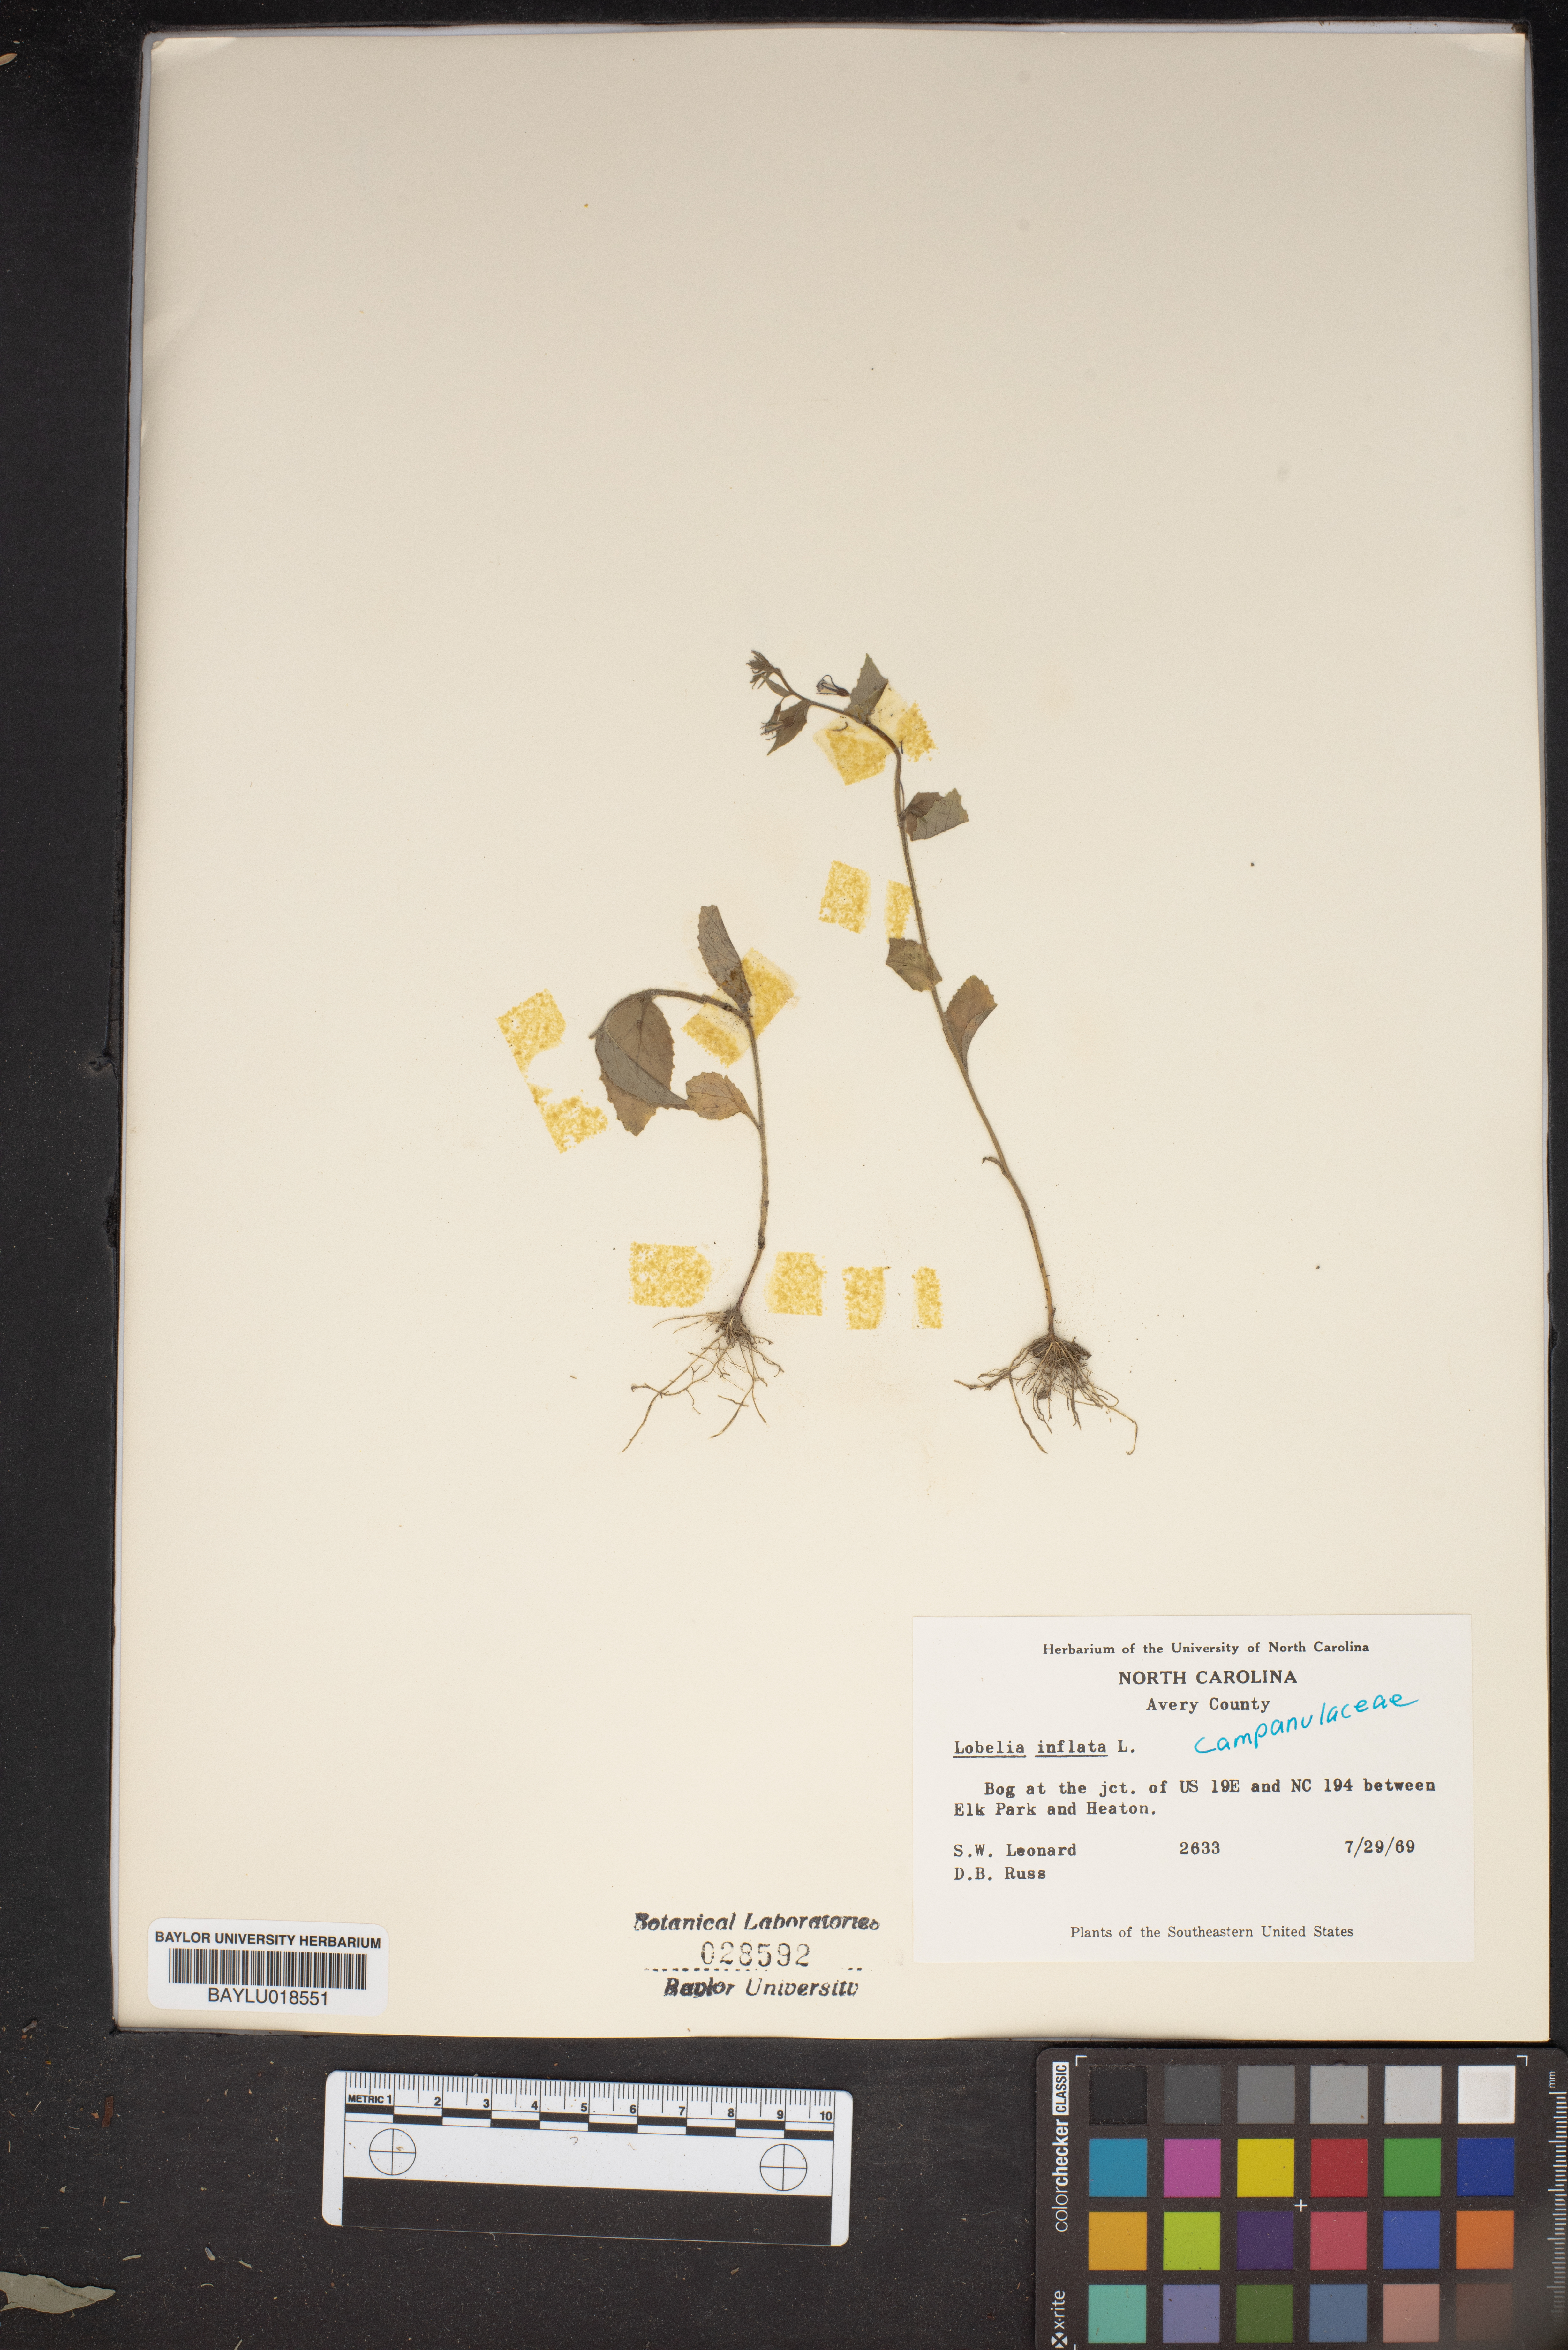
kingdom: Plantae
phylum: Tracheophyta
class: Magnoliopsida
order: Asterales
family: Campanulaceae
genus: Lobelia
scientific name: Lobelia inflata
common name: Indian tobacco
